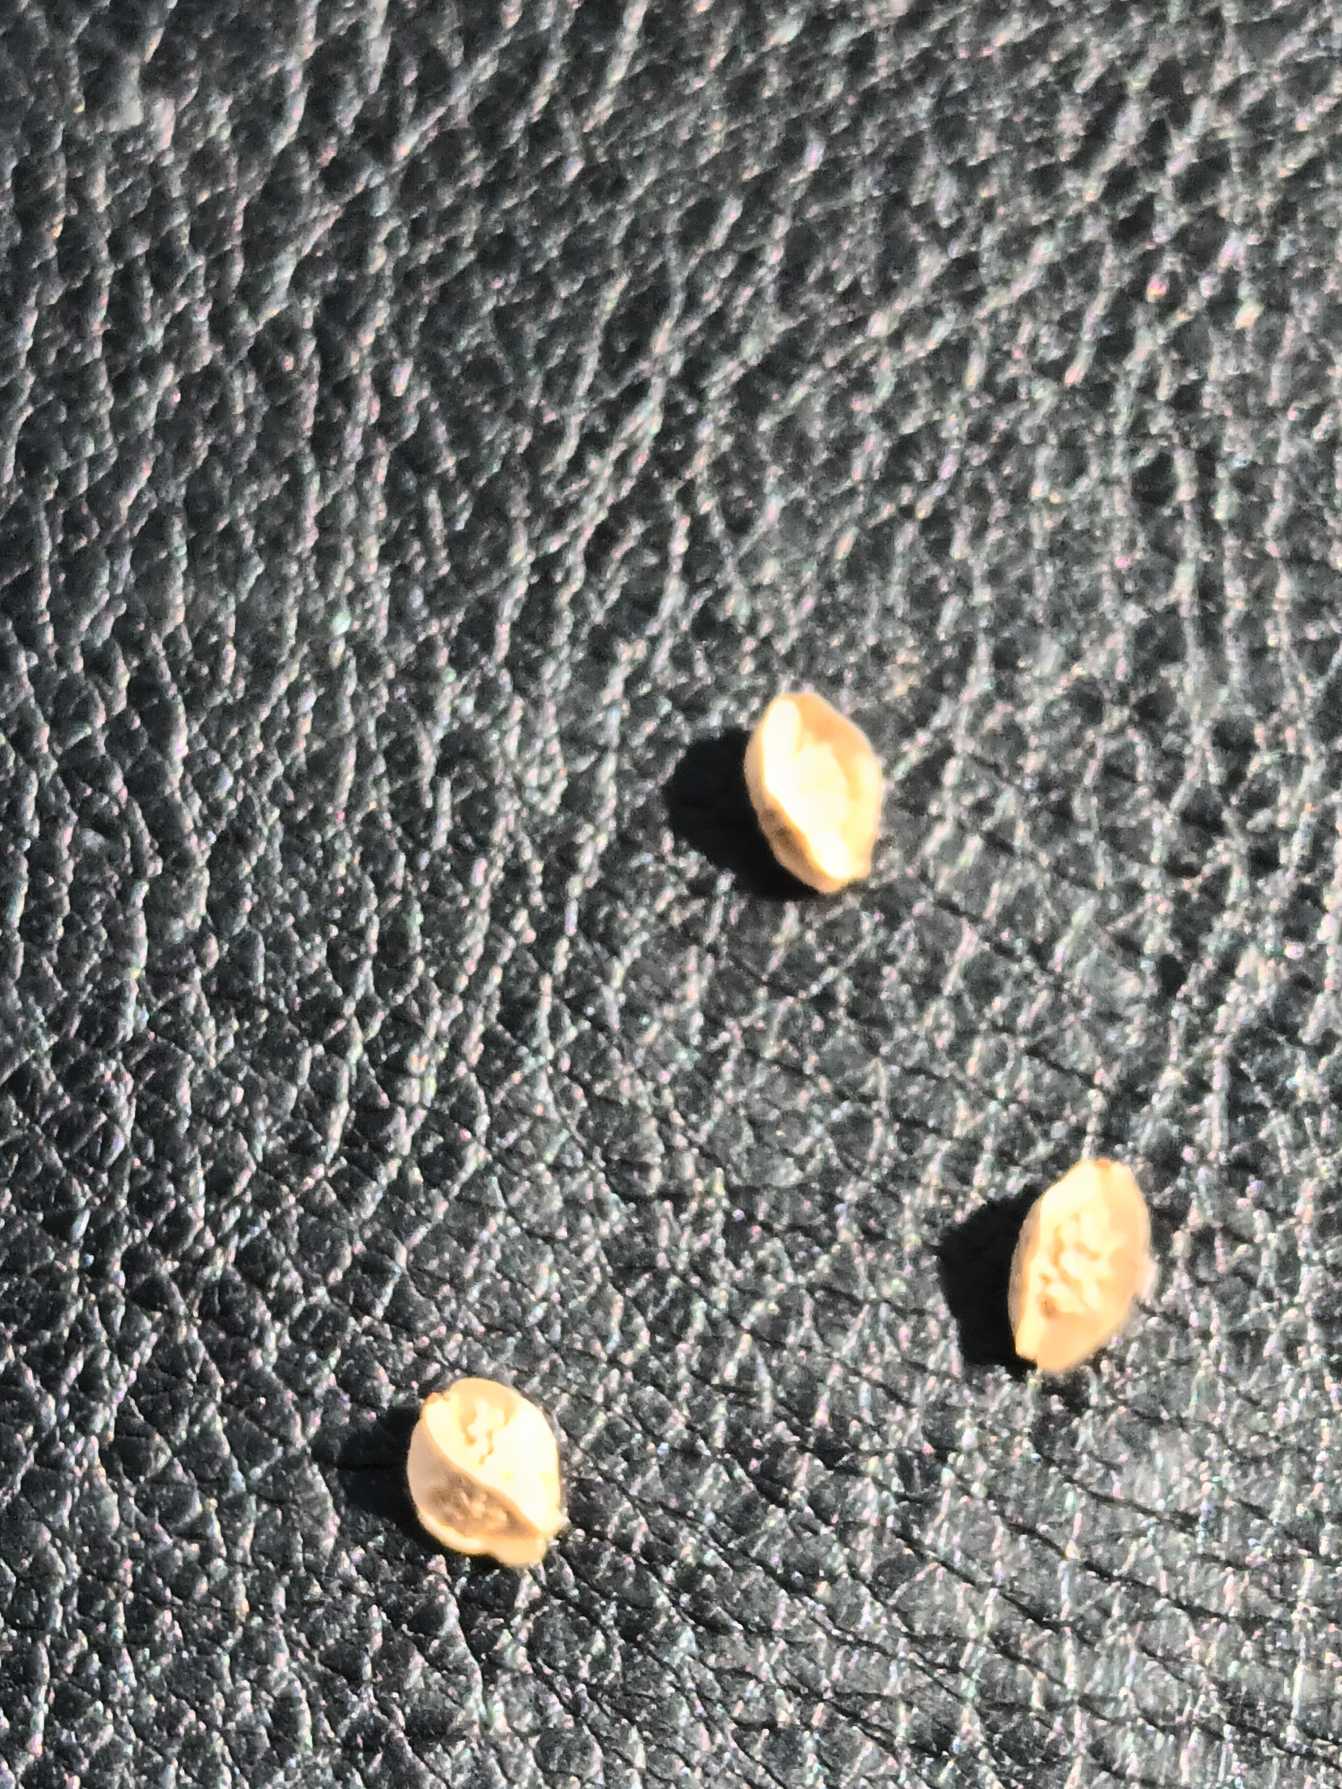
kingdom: Plantae
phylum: Tracheophyta
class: Magnoliopsida
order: Rosales
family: Rosaceae
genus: Poterium
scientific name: Poterium sanguisorba
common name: Vingefrøet bibernelle
